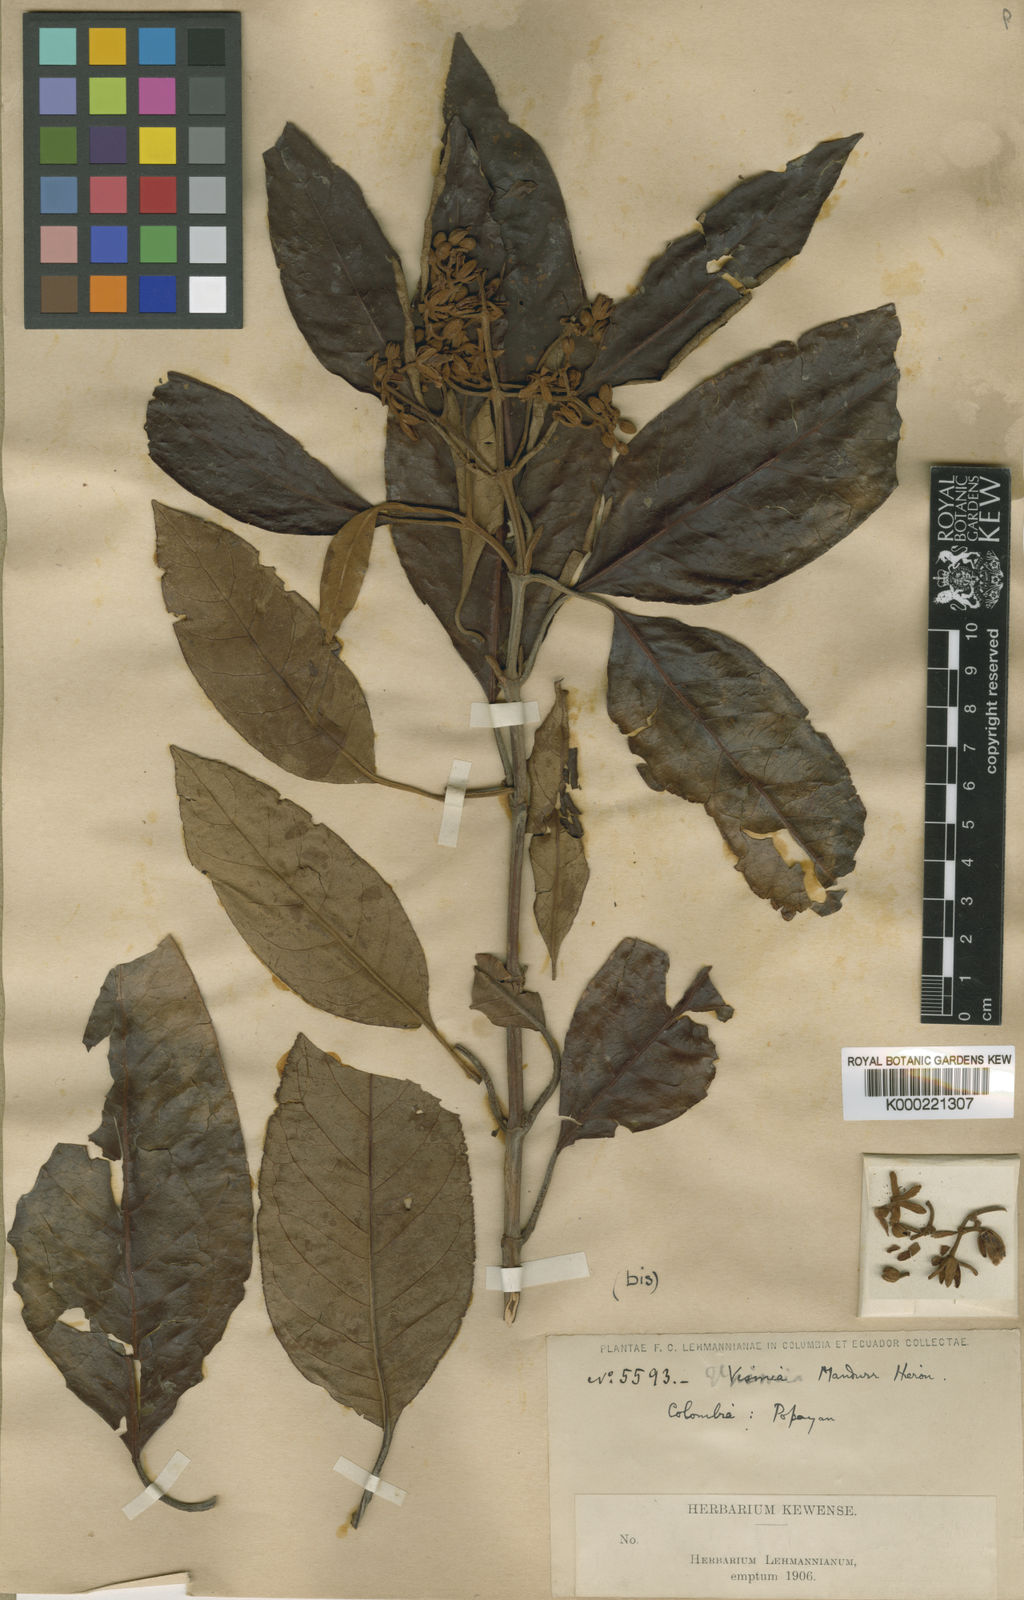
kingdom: Plantae
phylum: Tracheophyta
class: Magnoliopsida
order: Malpighiales
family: Hypericaceae
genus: Vismia
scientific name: Vismia mandurr
